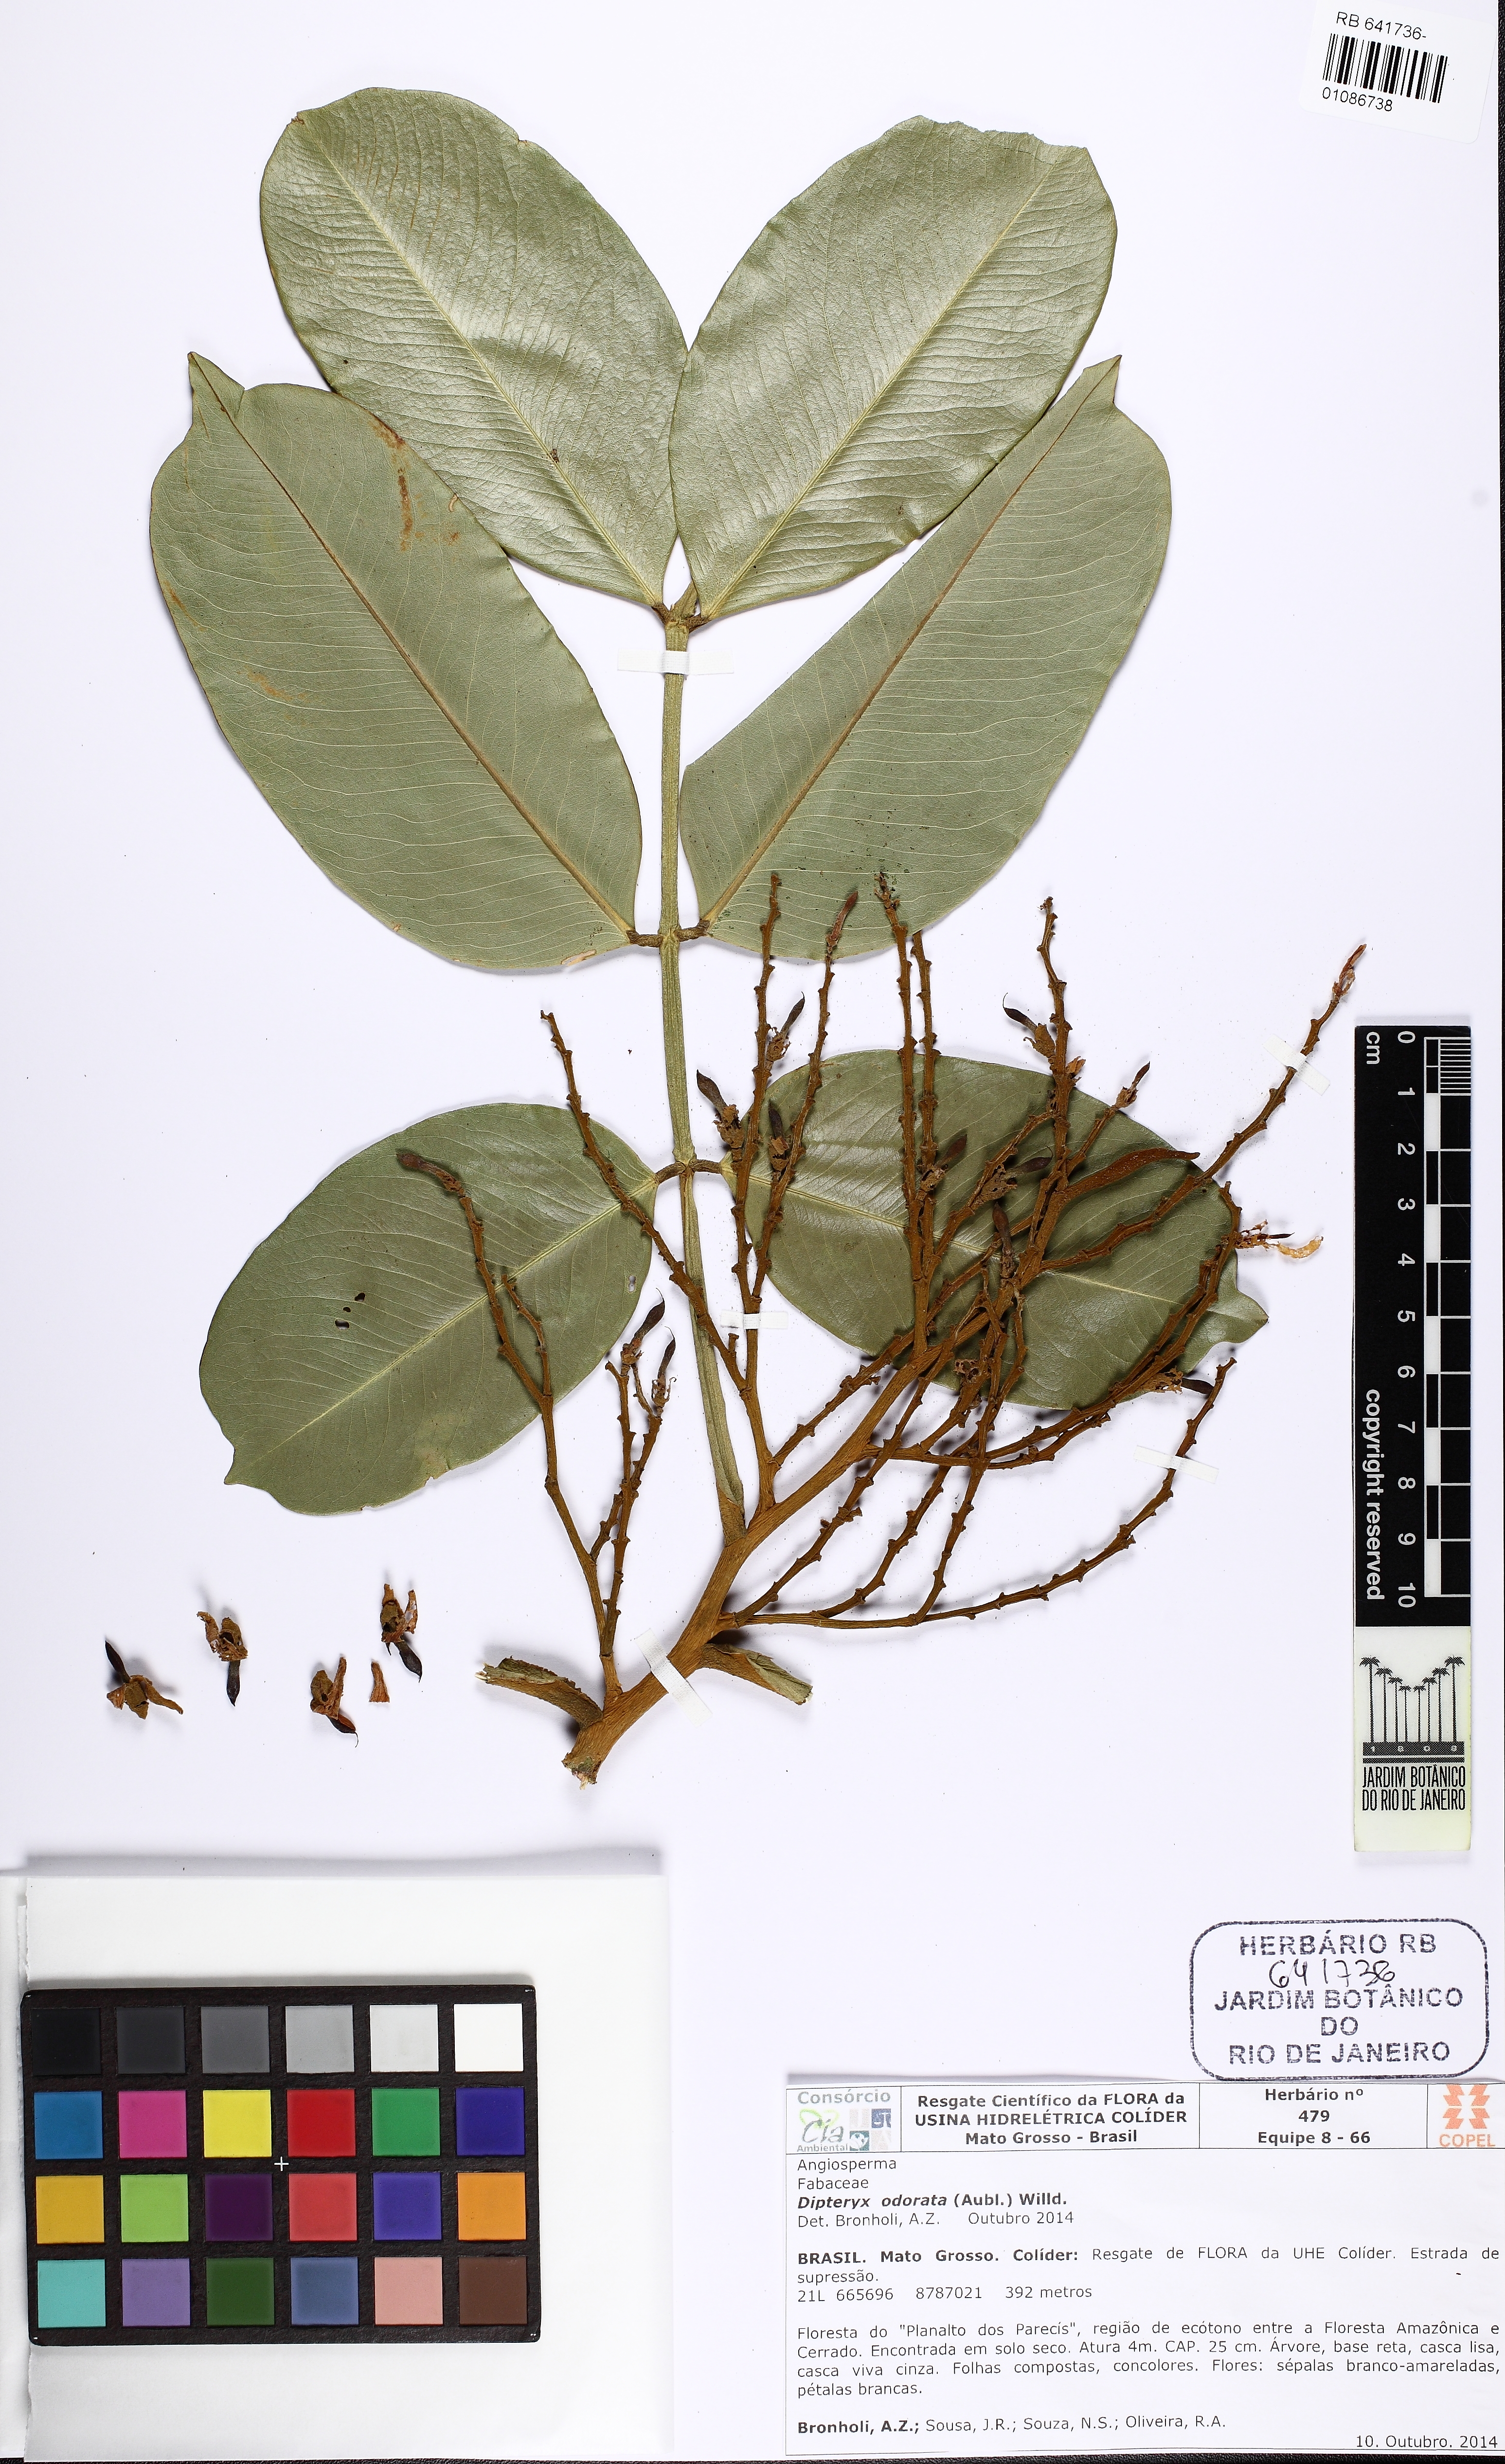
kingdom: Plantae
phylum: Tracheophyta
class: Magnoliopsida
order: Fabales
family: Fabaceae
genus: Dipteryx
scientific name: Dipteryx odorata
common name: Tonka
